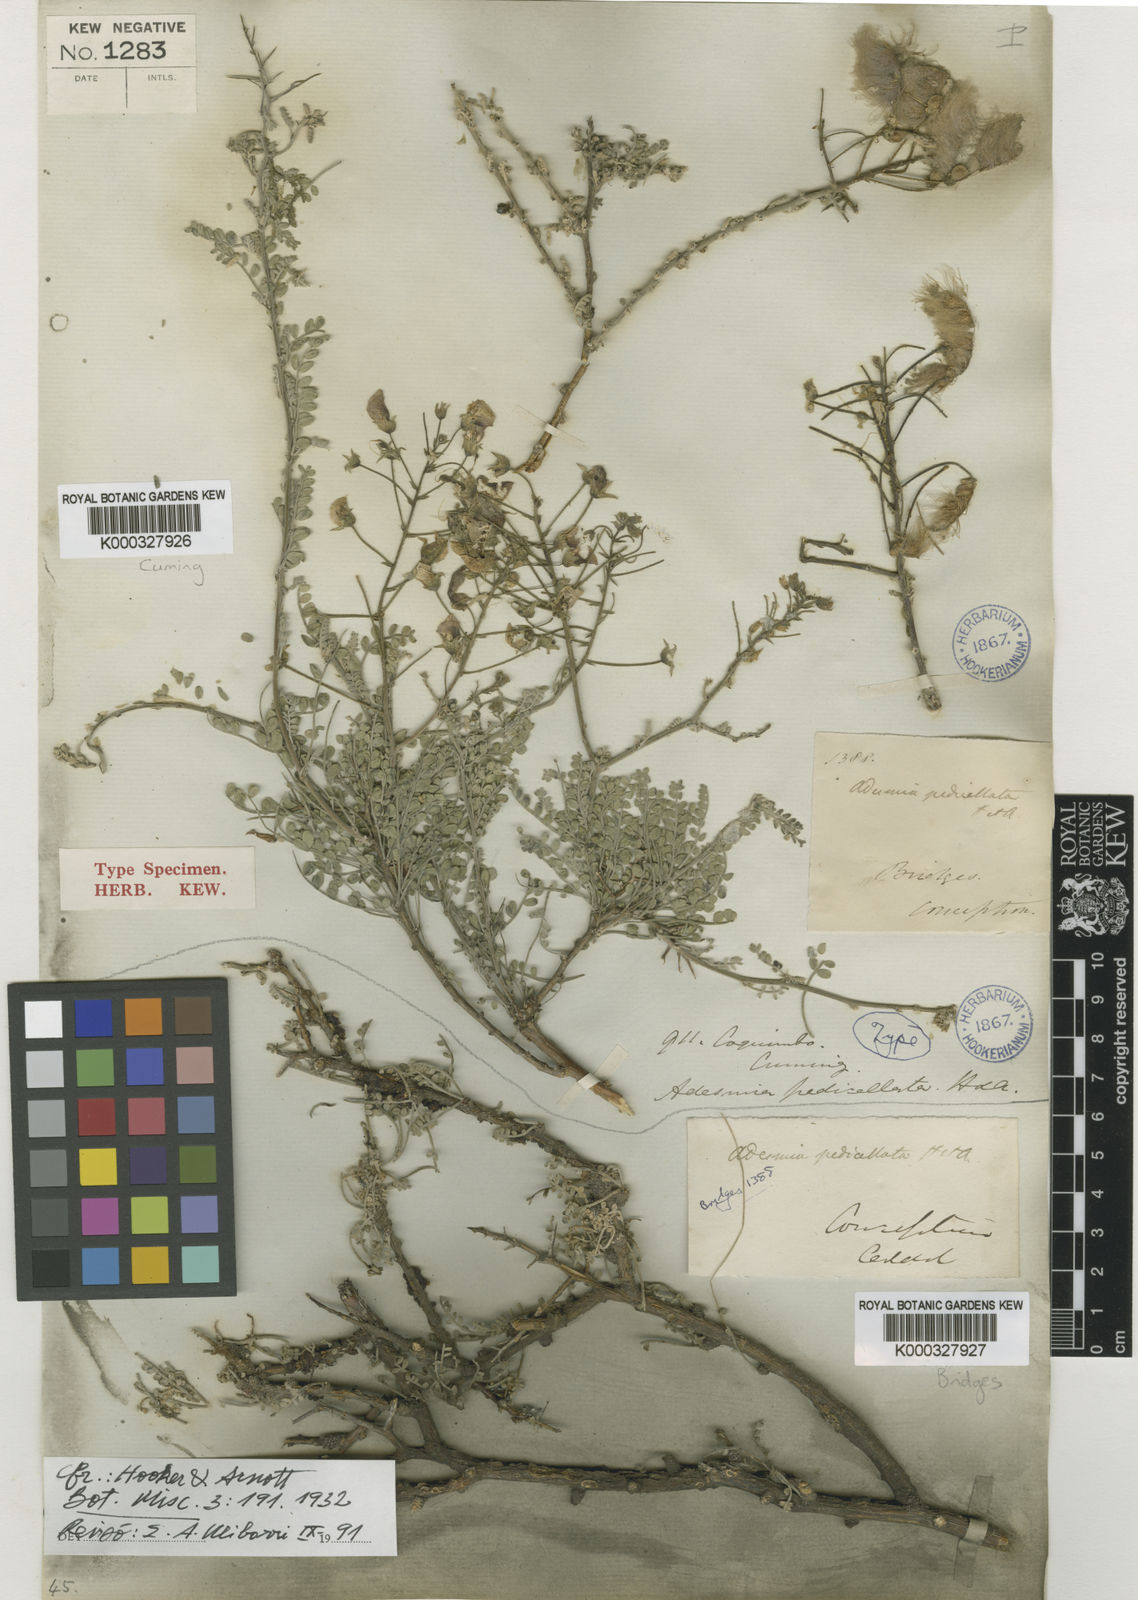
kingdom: Plantae
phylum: Tracheophyta
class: Magnoliopsida
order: Fabales
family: Fabaceae
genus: Adesmia
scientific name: Adesmia pedicellata
